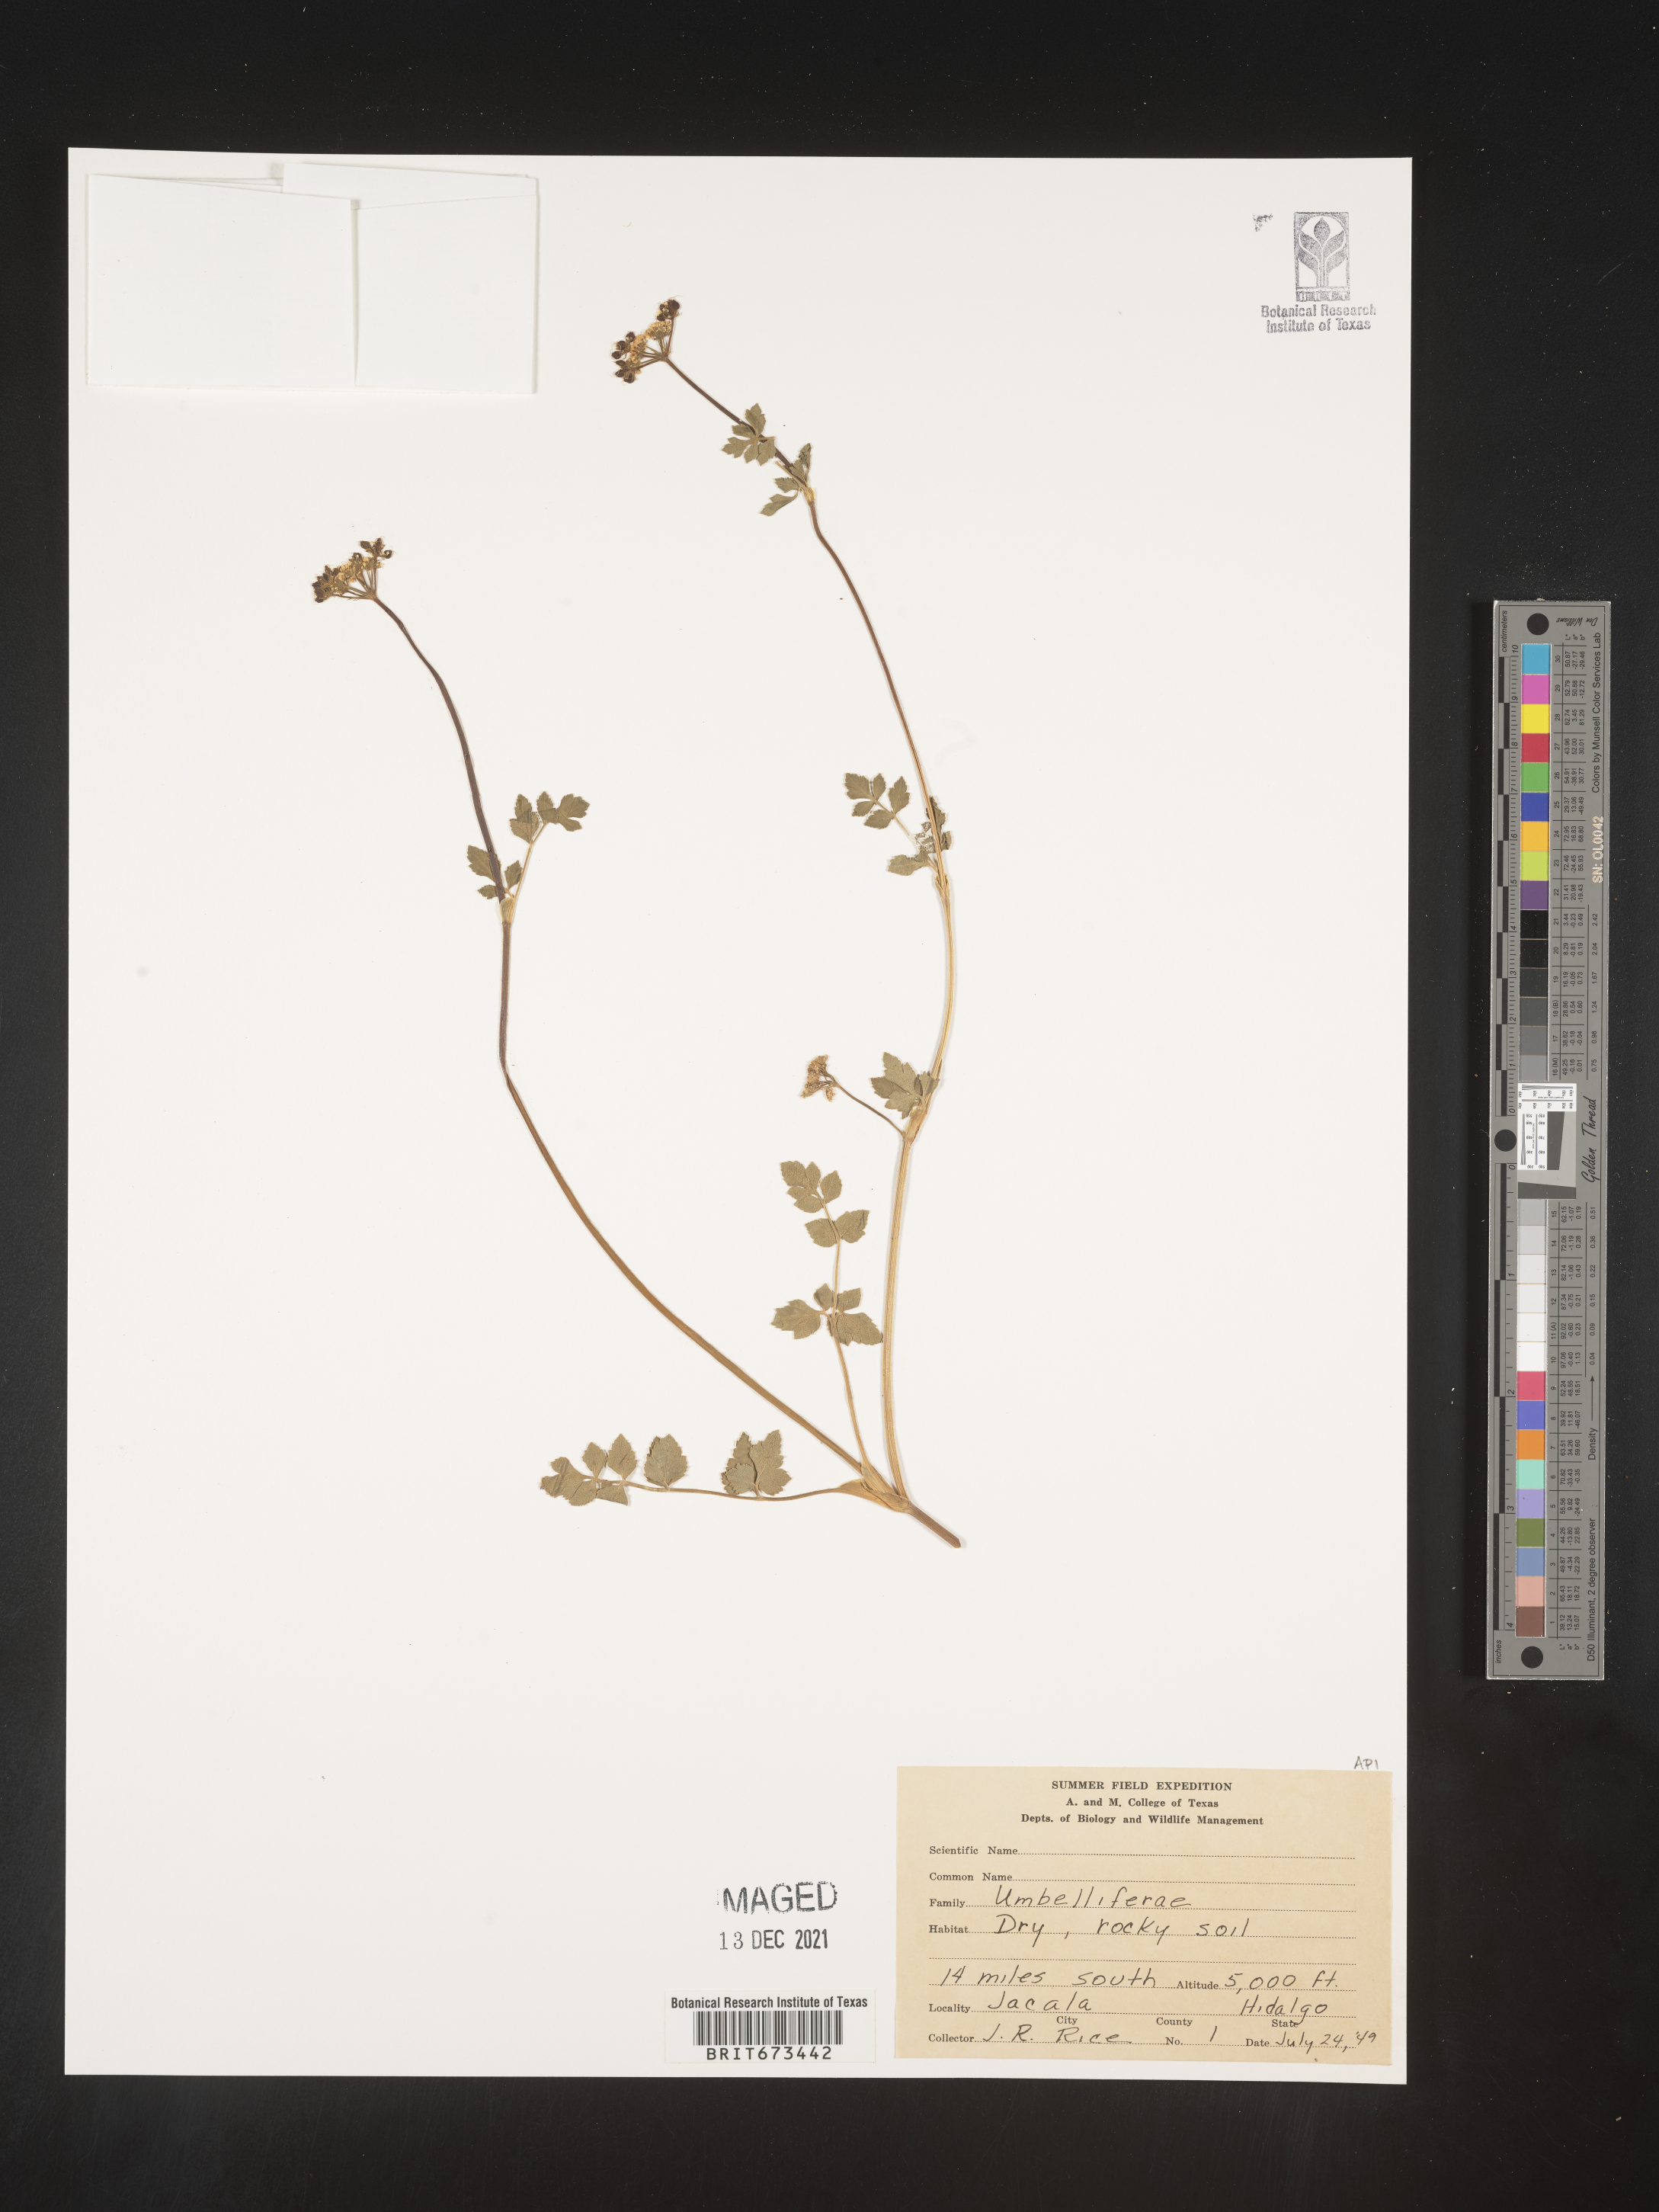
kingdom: Plantae
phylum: Tracheophyta
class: Magnoliopsida
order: Apiales
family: Apiaceae
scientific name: Apiaceae
